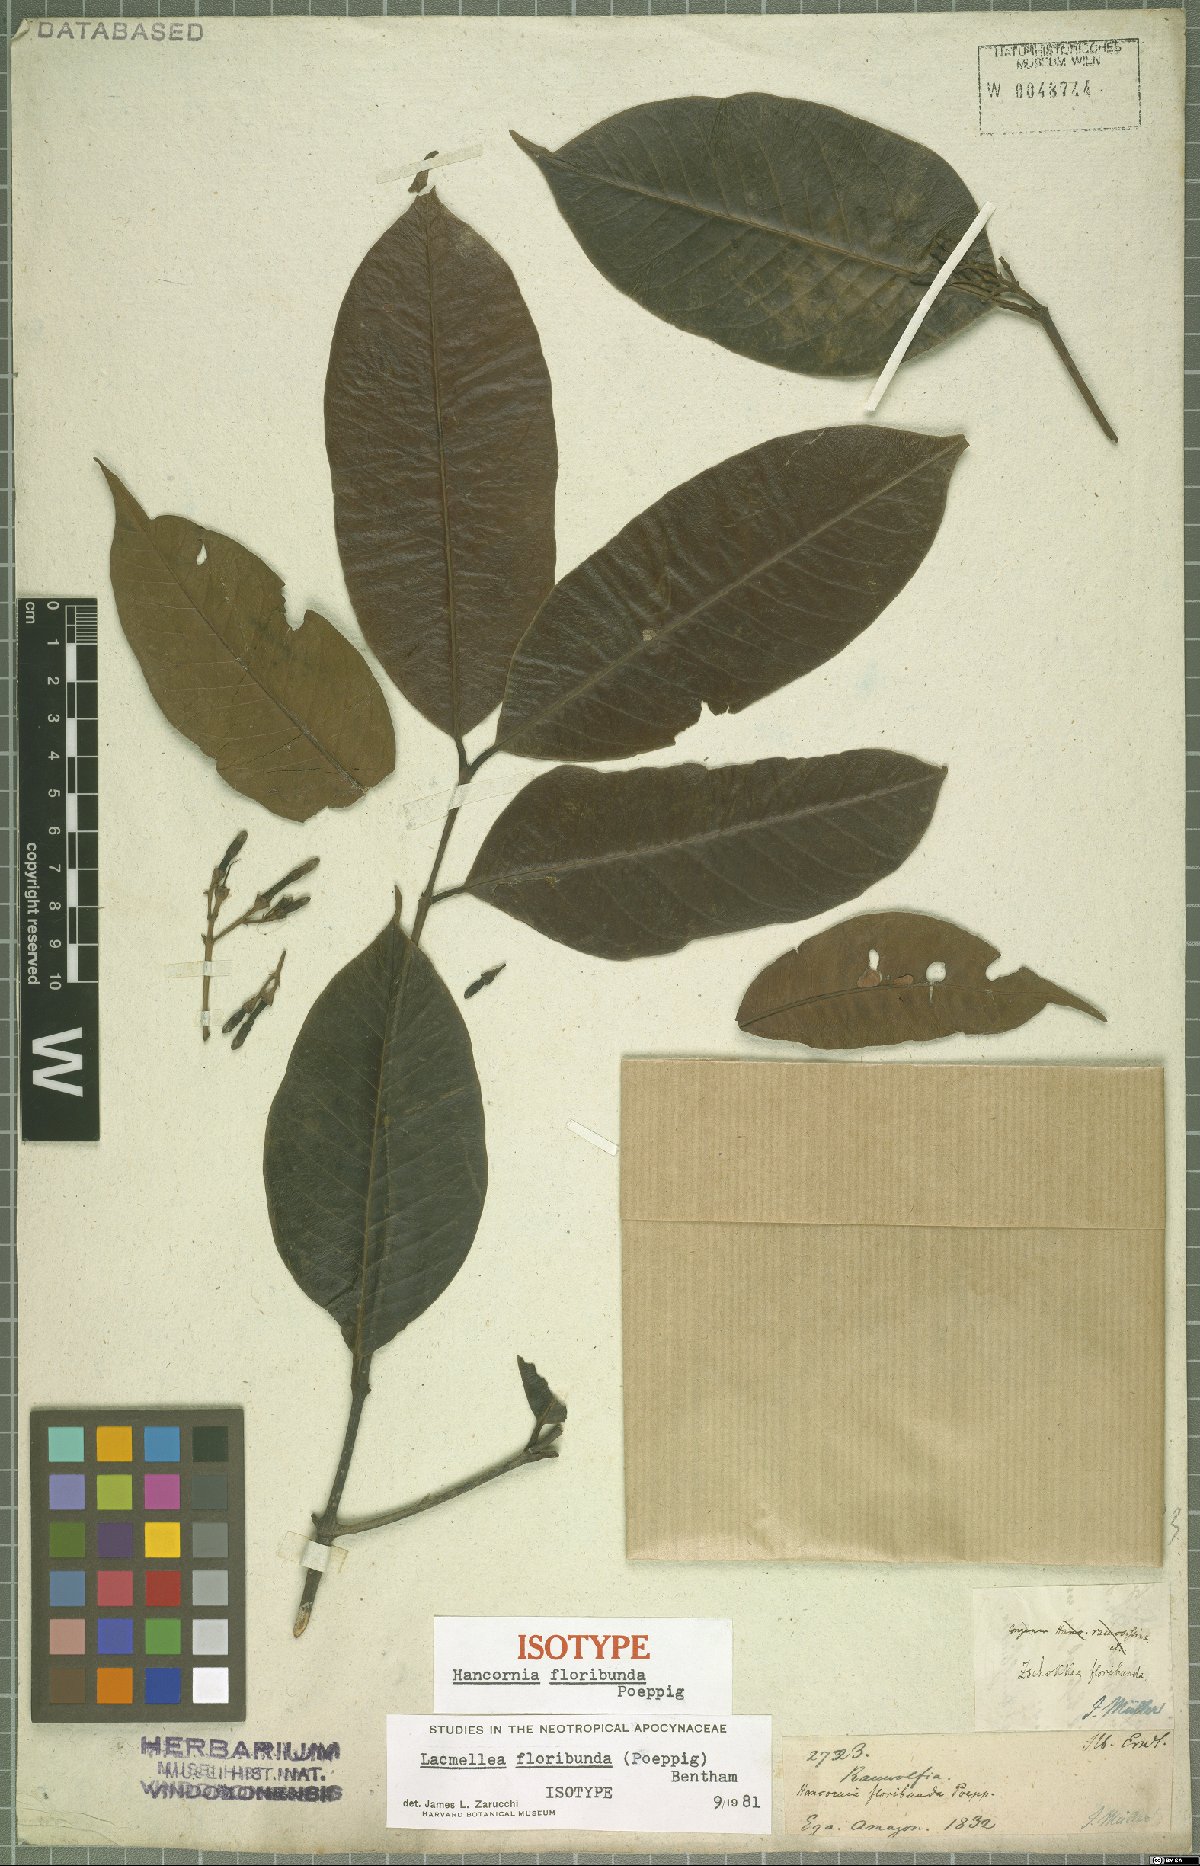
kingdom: Plantae
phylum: Tracheophyta
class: Magnoliopsida
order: Gentianales
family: Apocynaceae
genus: Lacmellea
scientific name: Lacmellea floribunda
